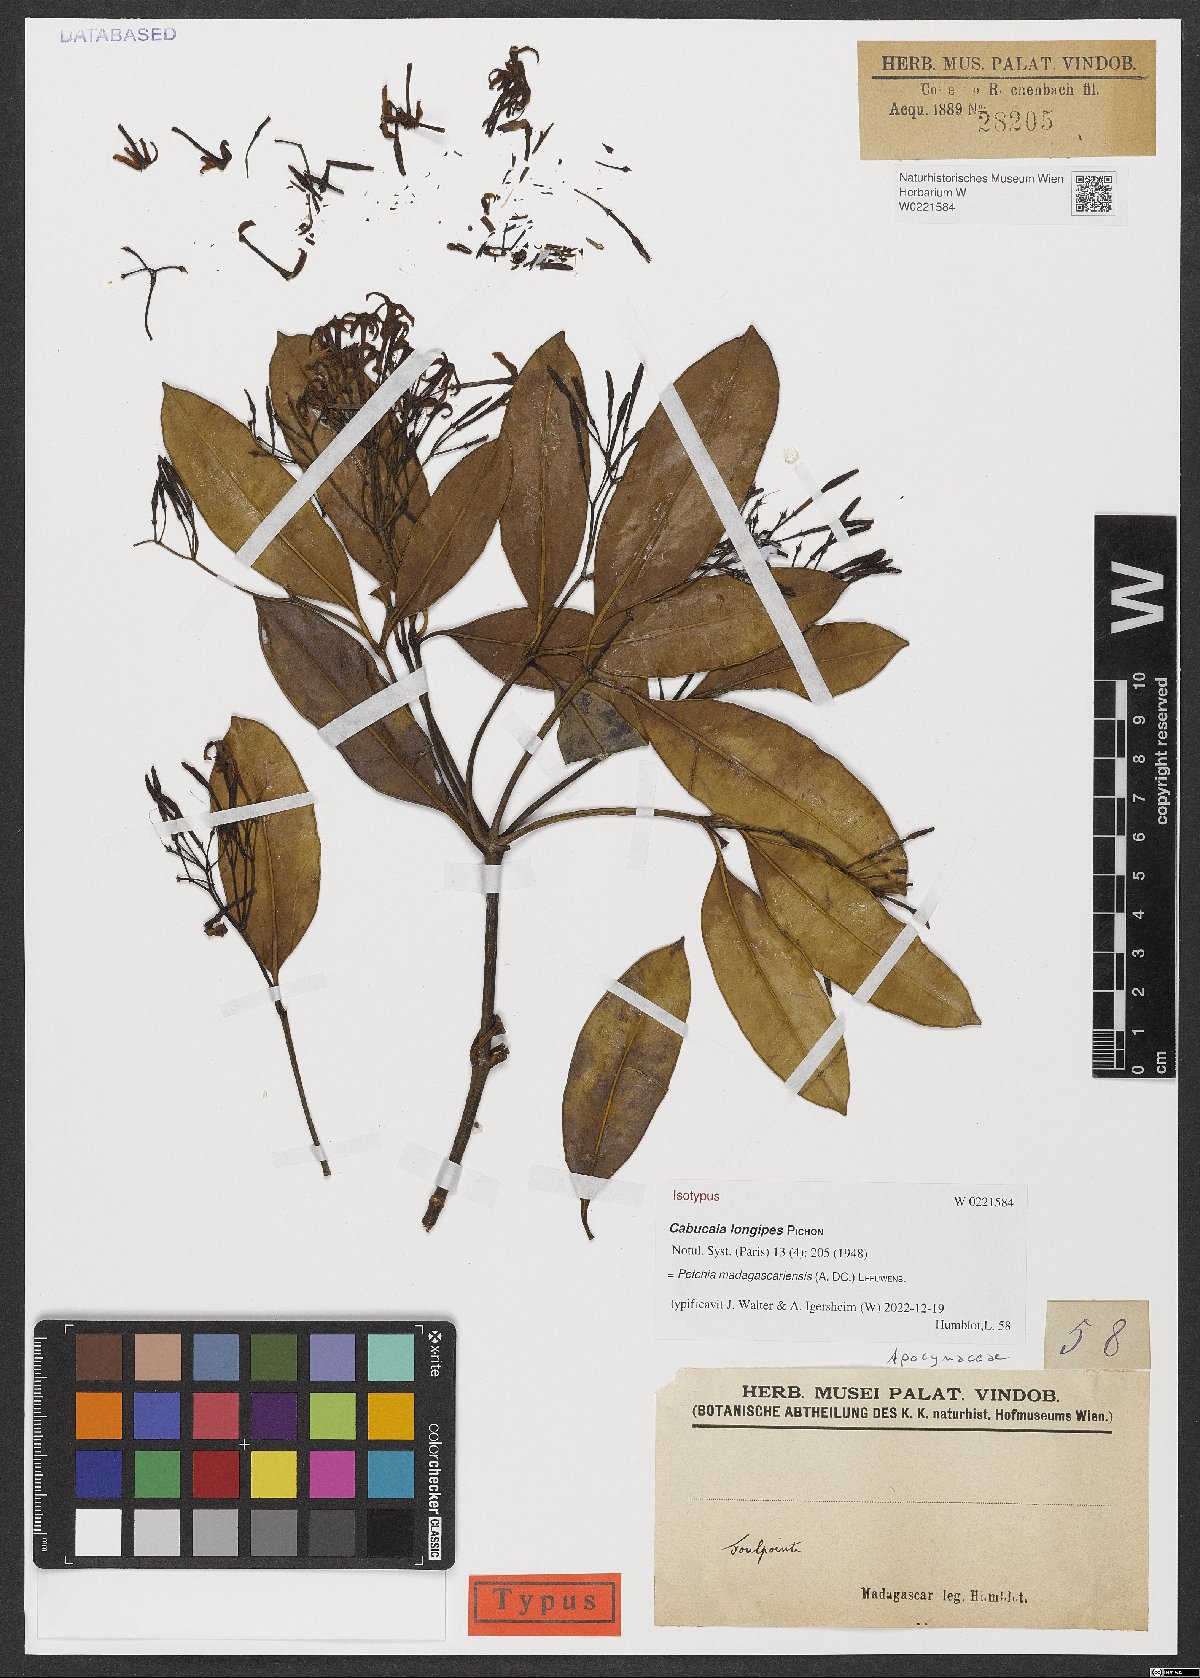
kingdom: Plantae
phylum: Tracheophyta
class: Magnoliopsida
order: Gentianales
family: Apocynaceae
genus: Petchia
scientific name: Petchia madagascariensis
